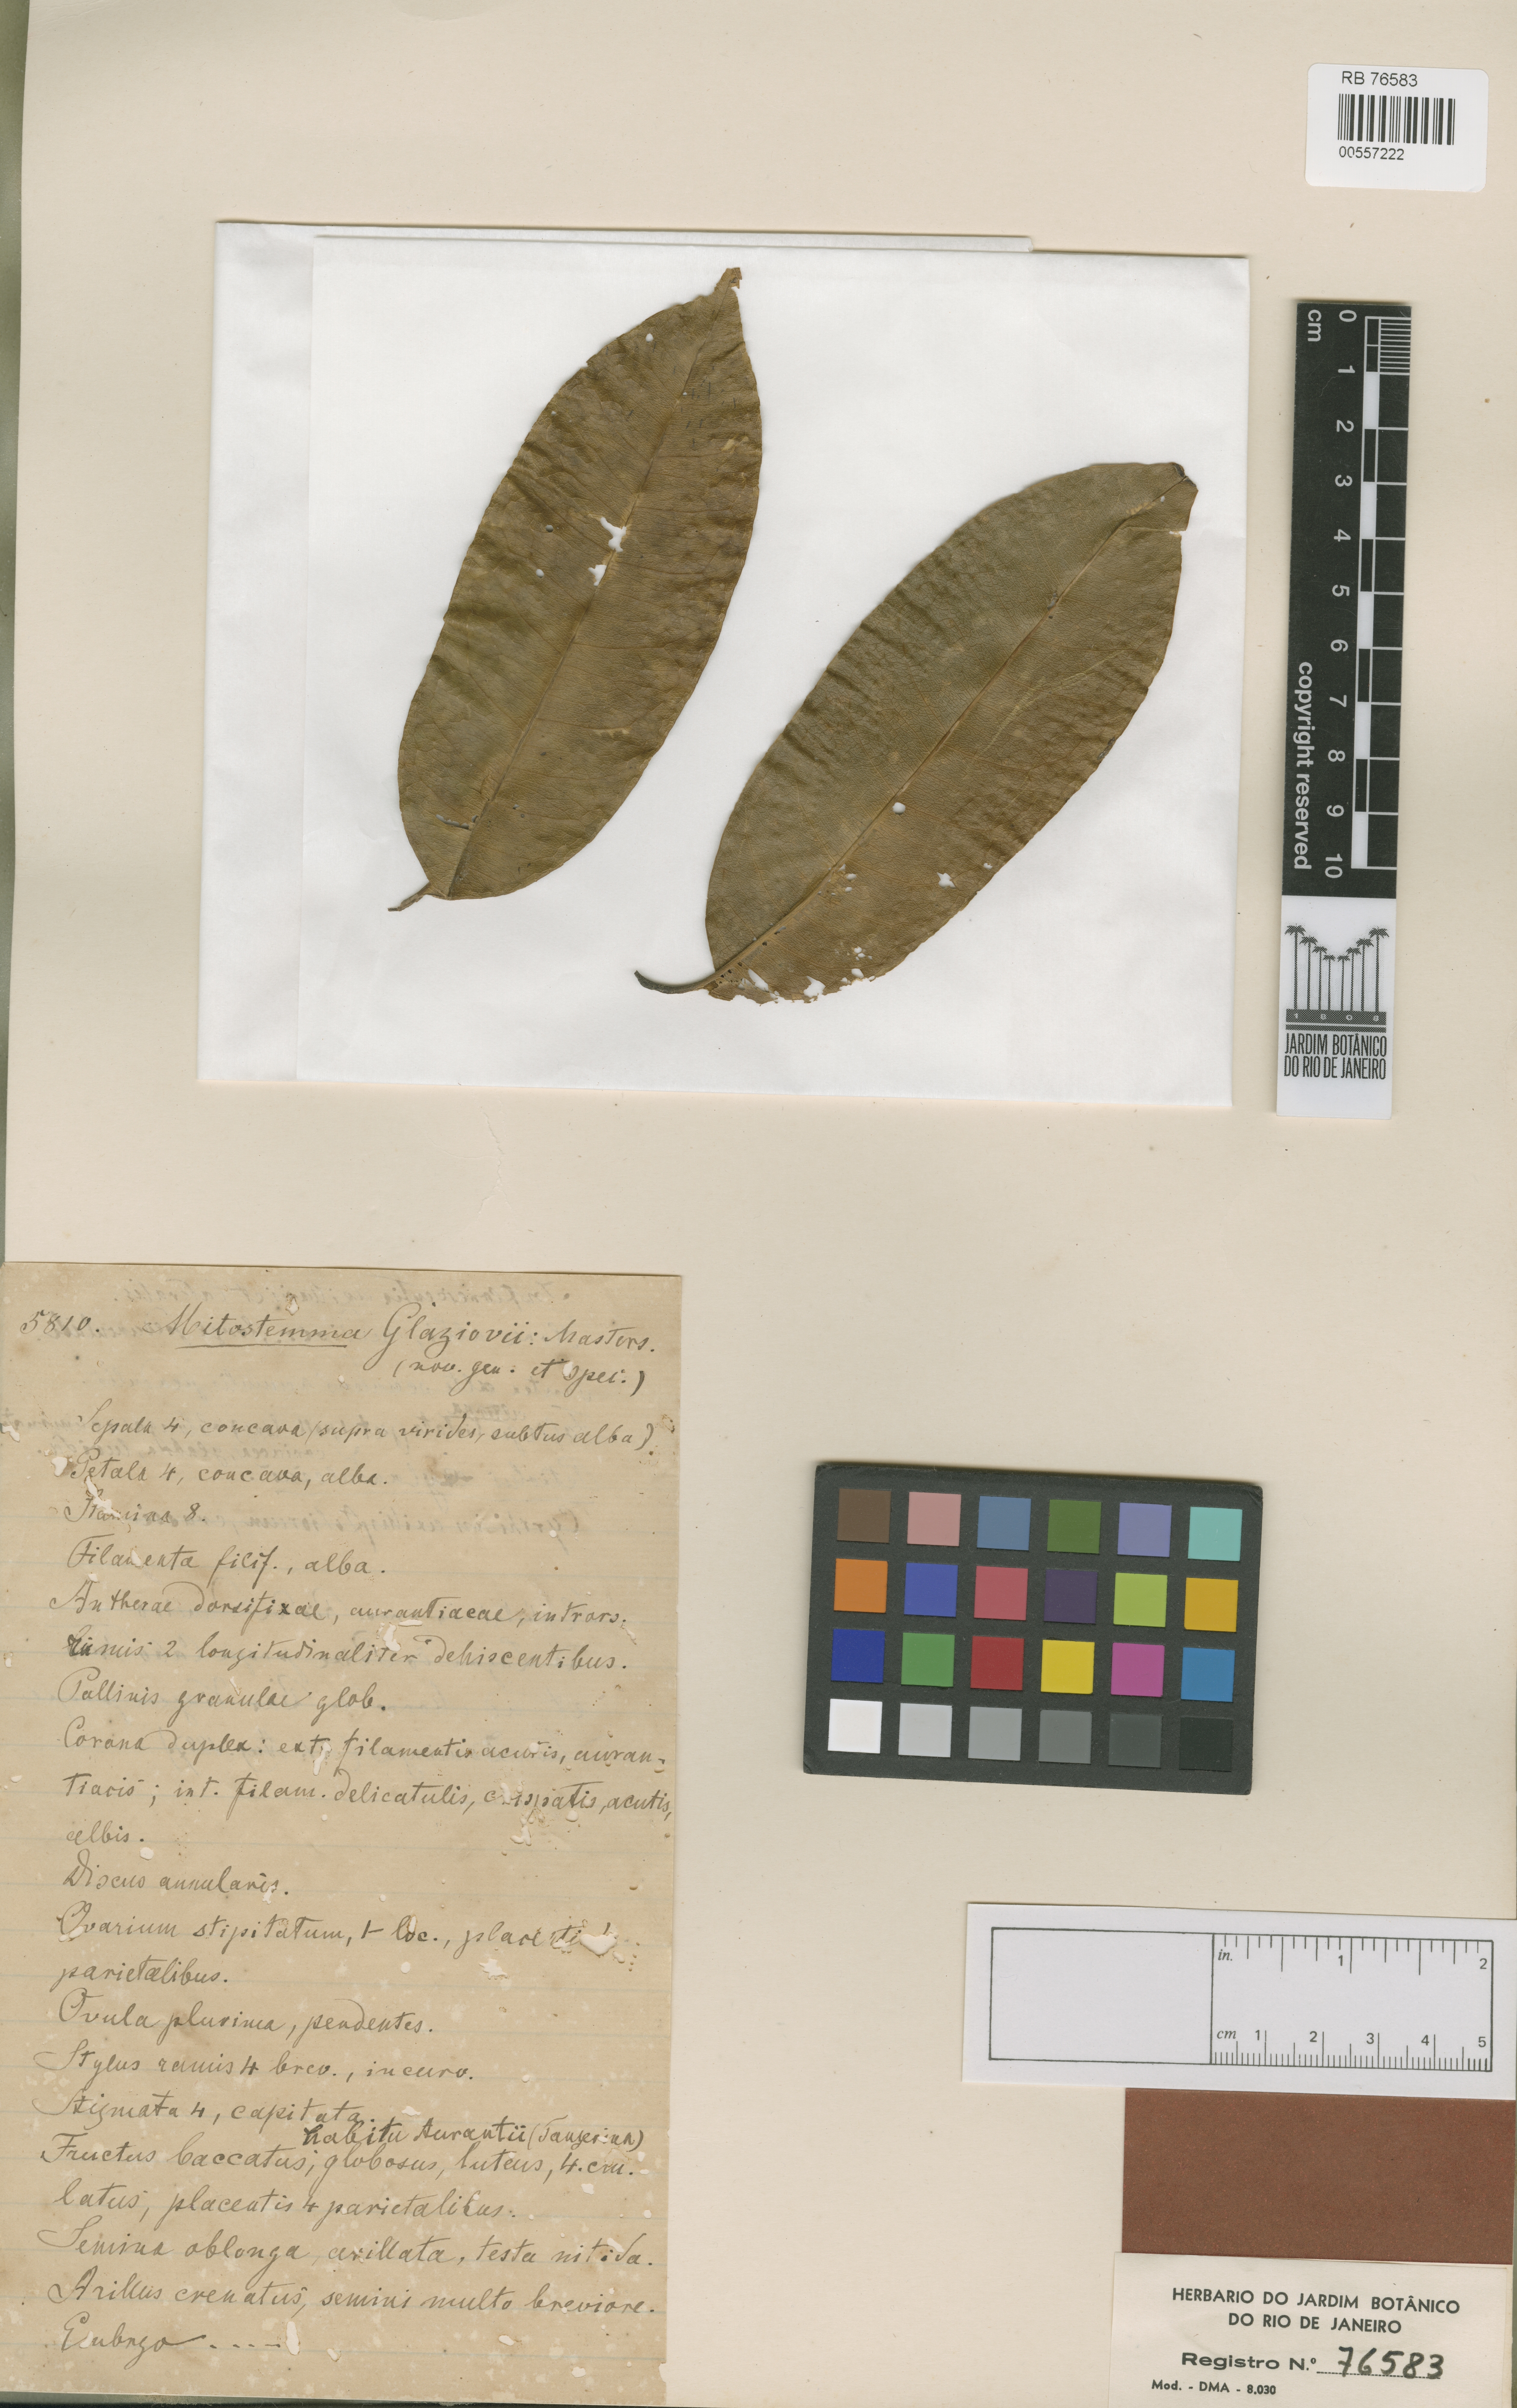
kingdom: Plantae
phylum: Tracheophyta
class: Magnoliopsida
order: Malpighiales
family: Passifloraceae
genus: Mitostemma
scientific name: Mitostemma glaziovii
